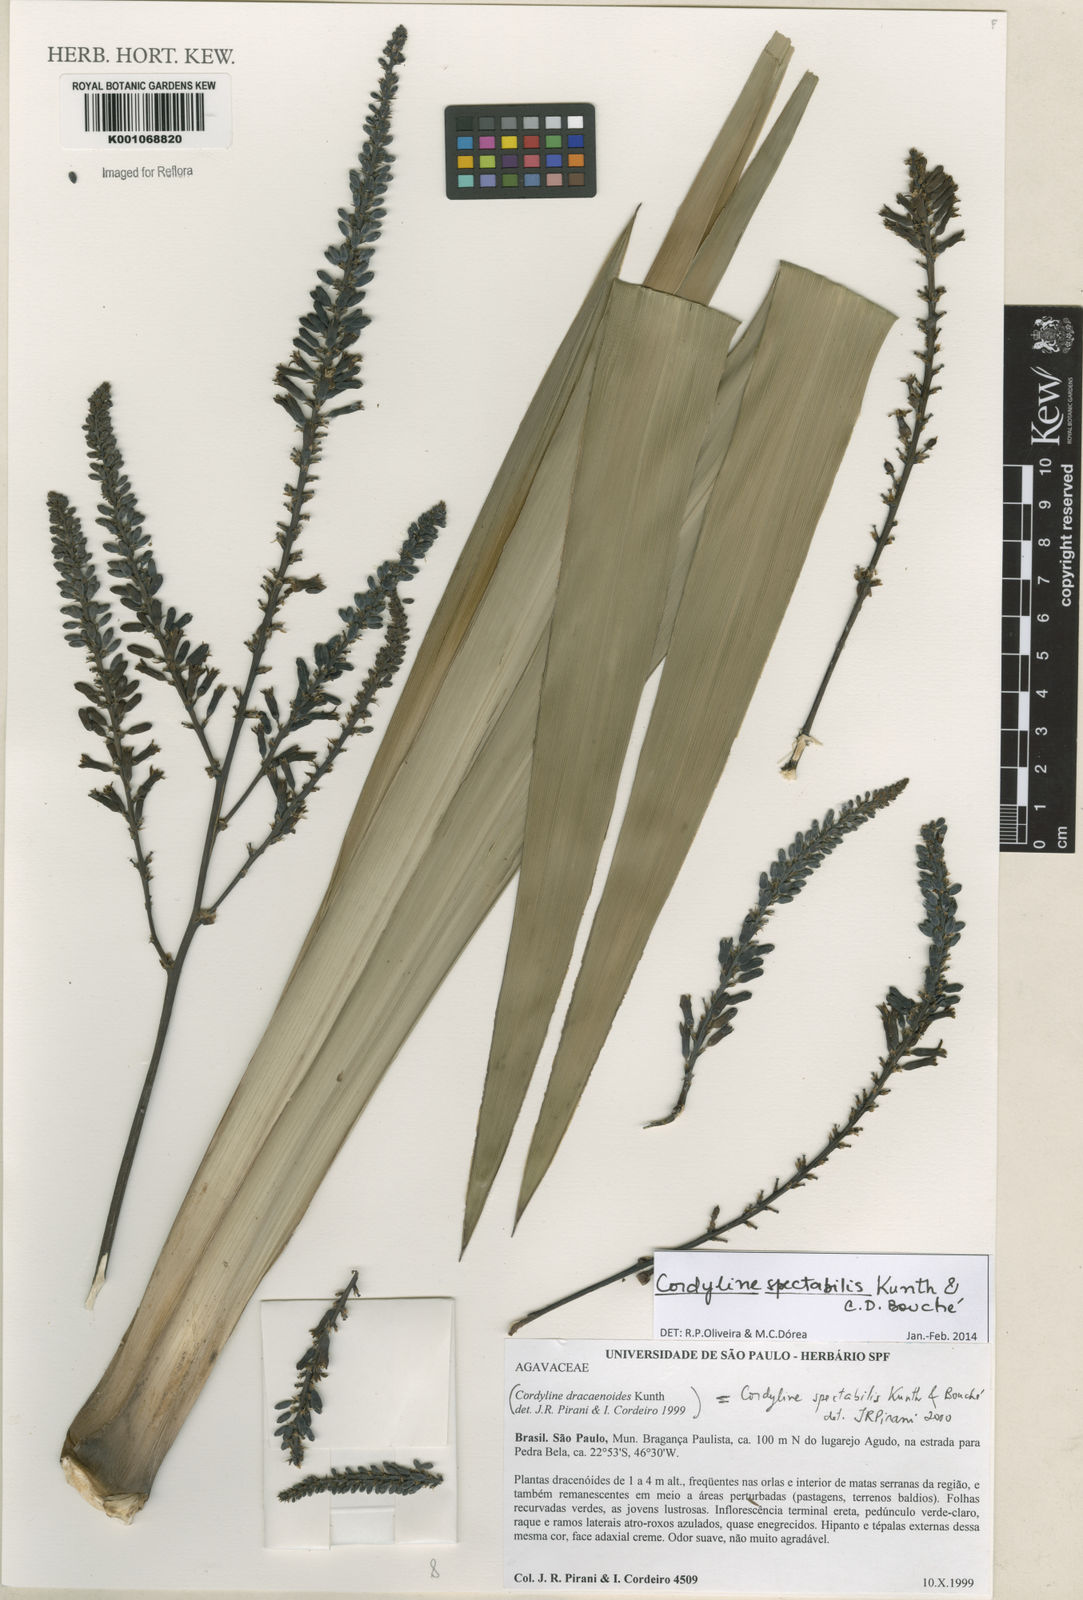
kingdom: Plantae
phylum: Tracheophyta
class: Liliopsida
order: Asparagales
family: Asparagaceae
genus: Cordyline
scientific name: Cordyline
